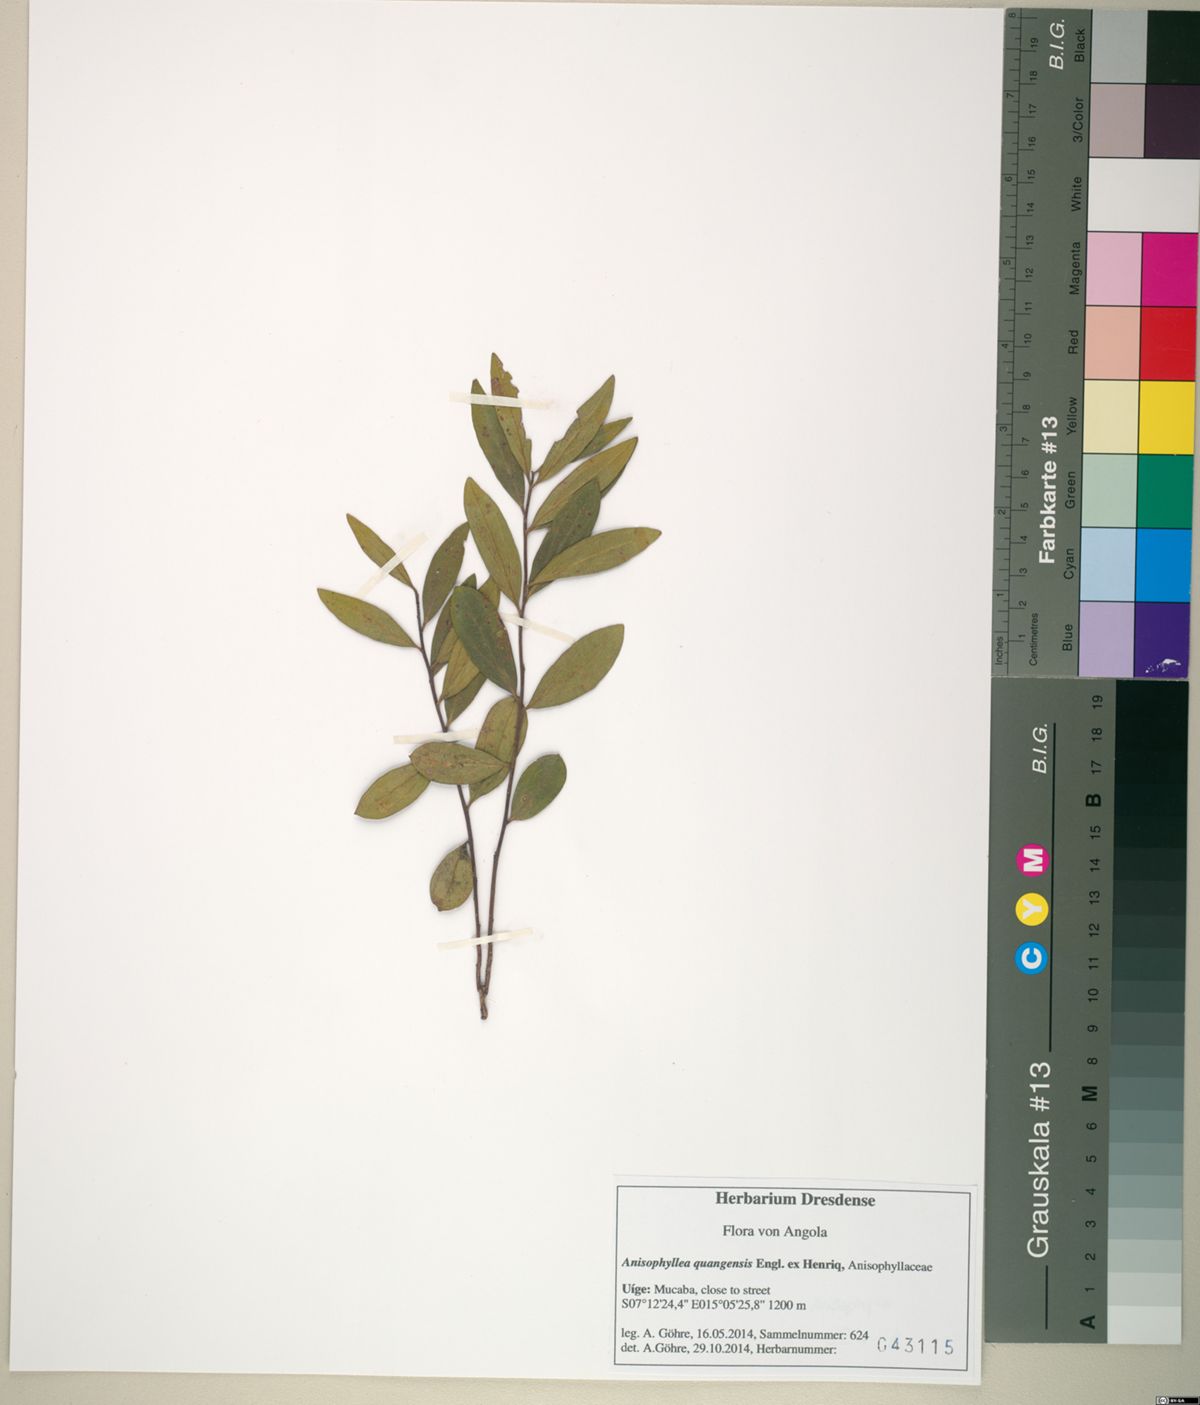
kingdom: Plantae
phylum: Tracheophyta
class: Magnoliopsida
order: Cucurbitales
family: Anisophylleaceae
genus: Anisophyllea
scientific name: Anisophyllea quangensis
